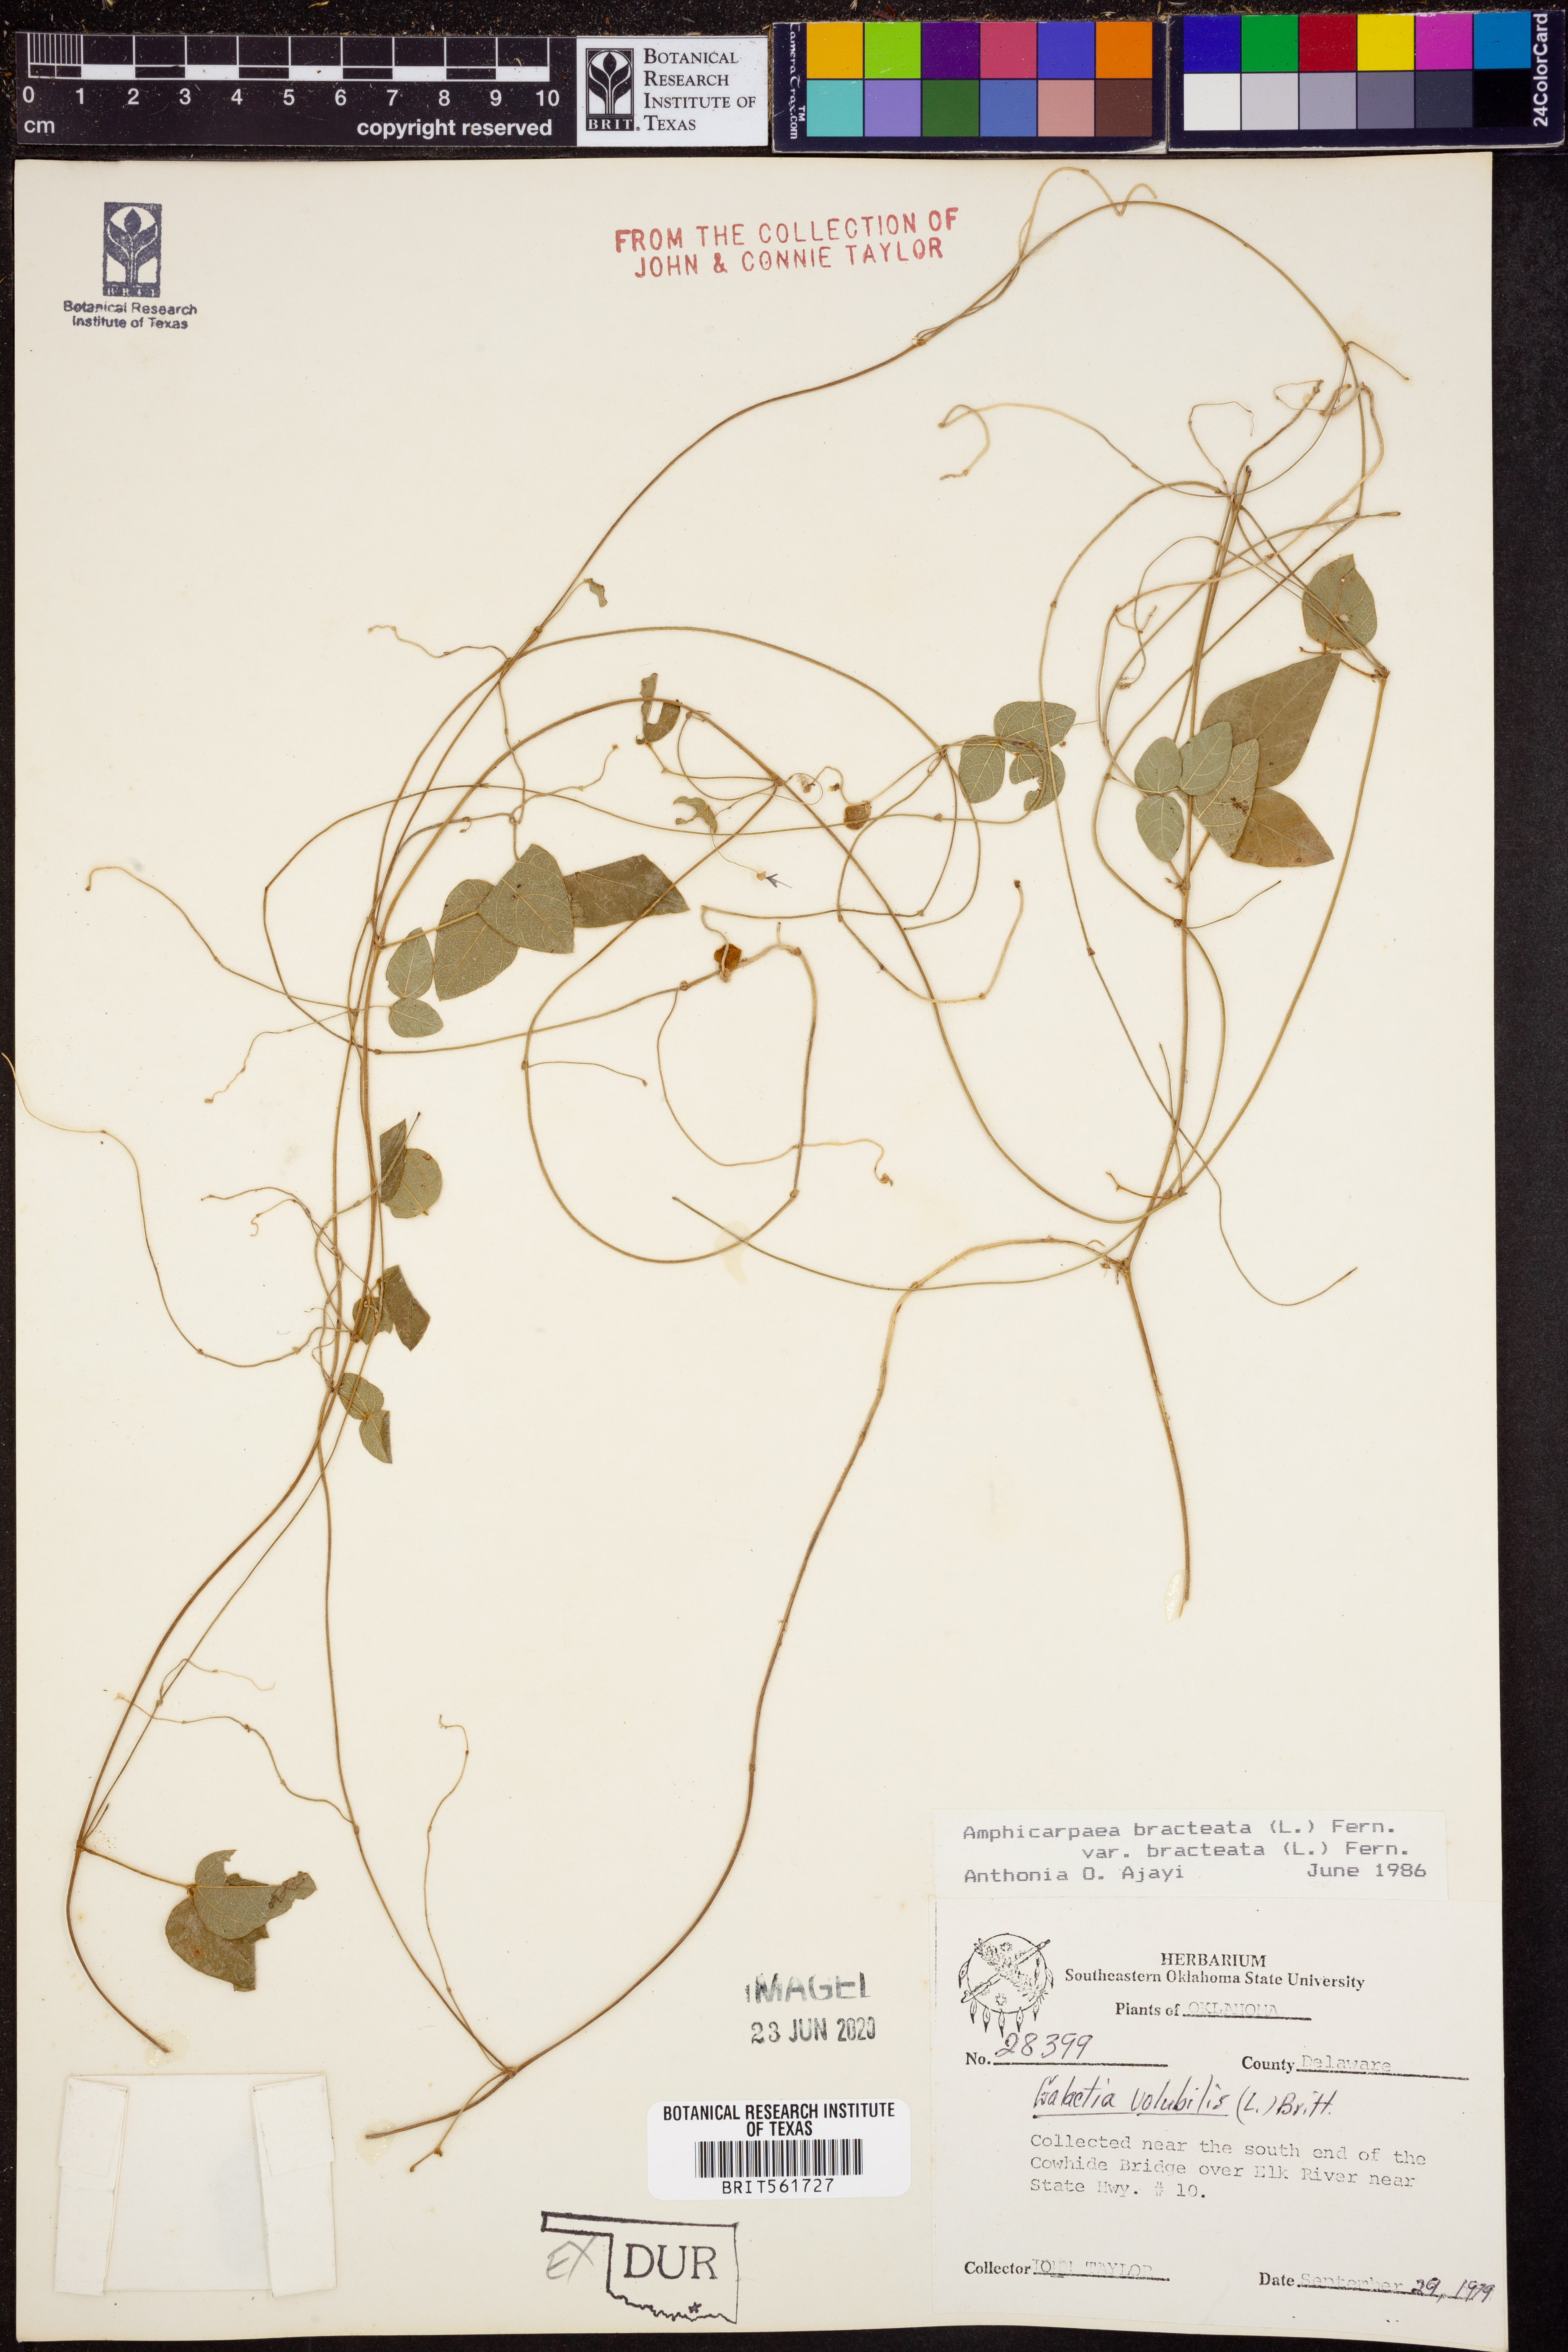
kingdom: Plantae
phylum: Tracheophyta
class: Magnoliopsida
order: Fabales
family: Fabaceae
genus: Amphicarpaea
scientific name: Amphicarpaea bracteata
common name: American hog peanut
